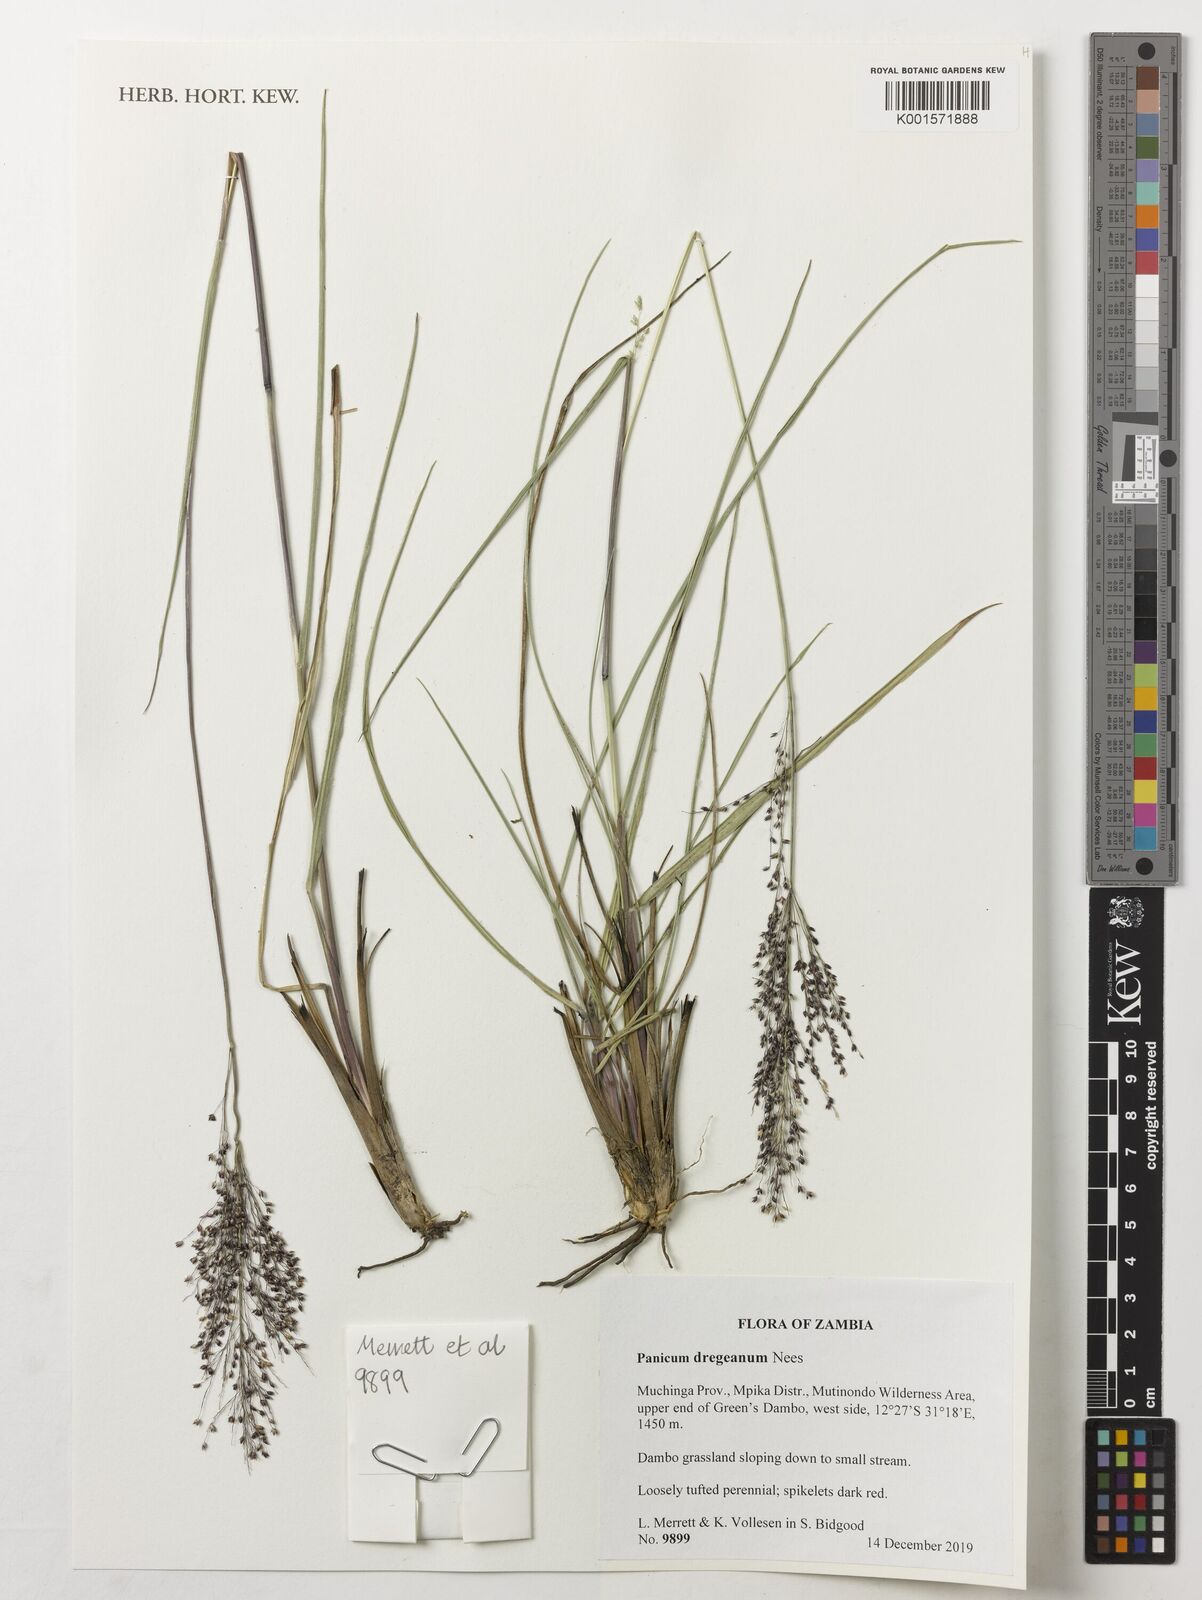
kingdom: Plantae
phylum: Tracheophyta
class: Liliopsida
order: Poales
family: Poaceae
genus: Panicum
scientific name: Panicum dregeanum
